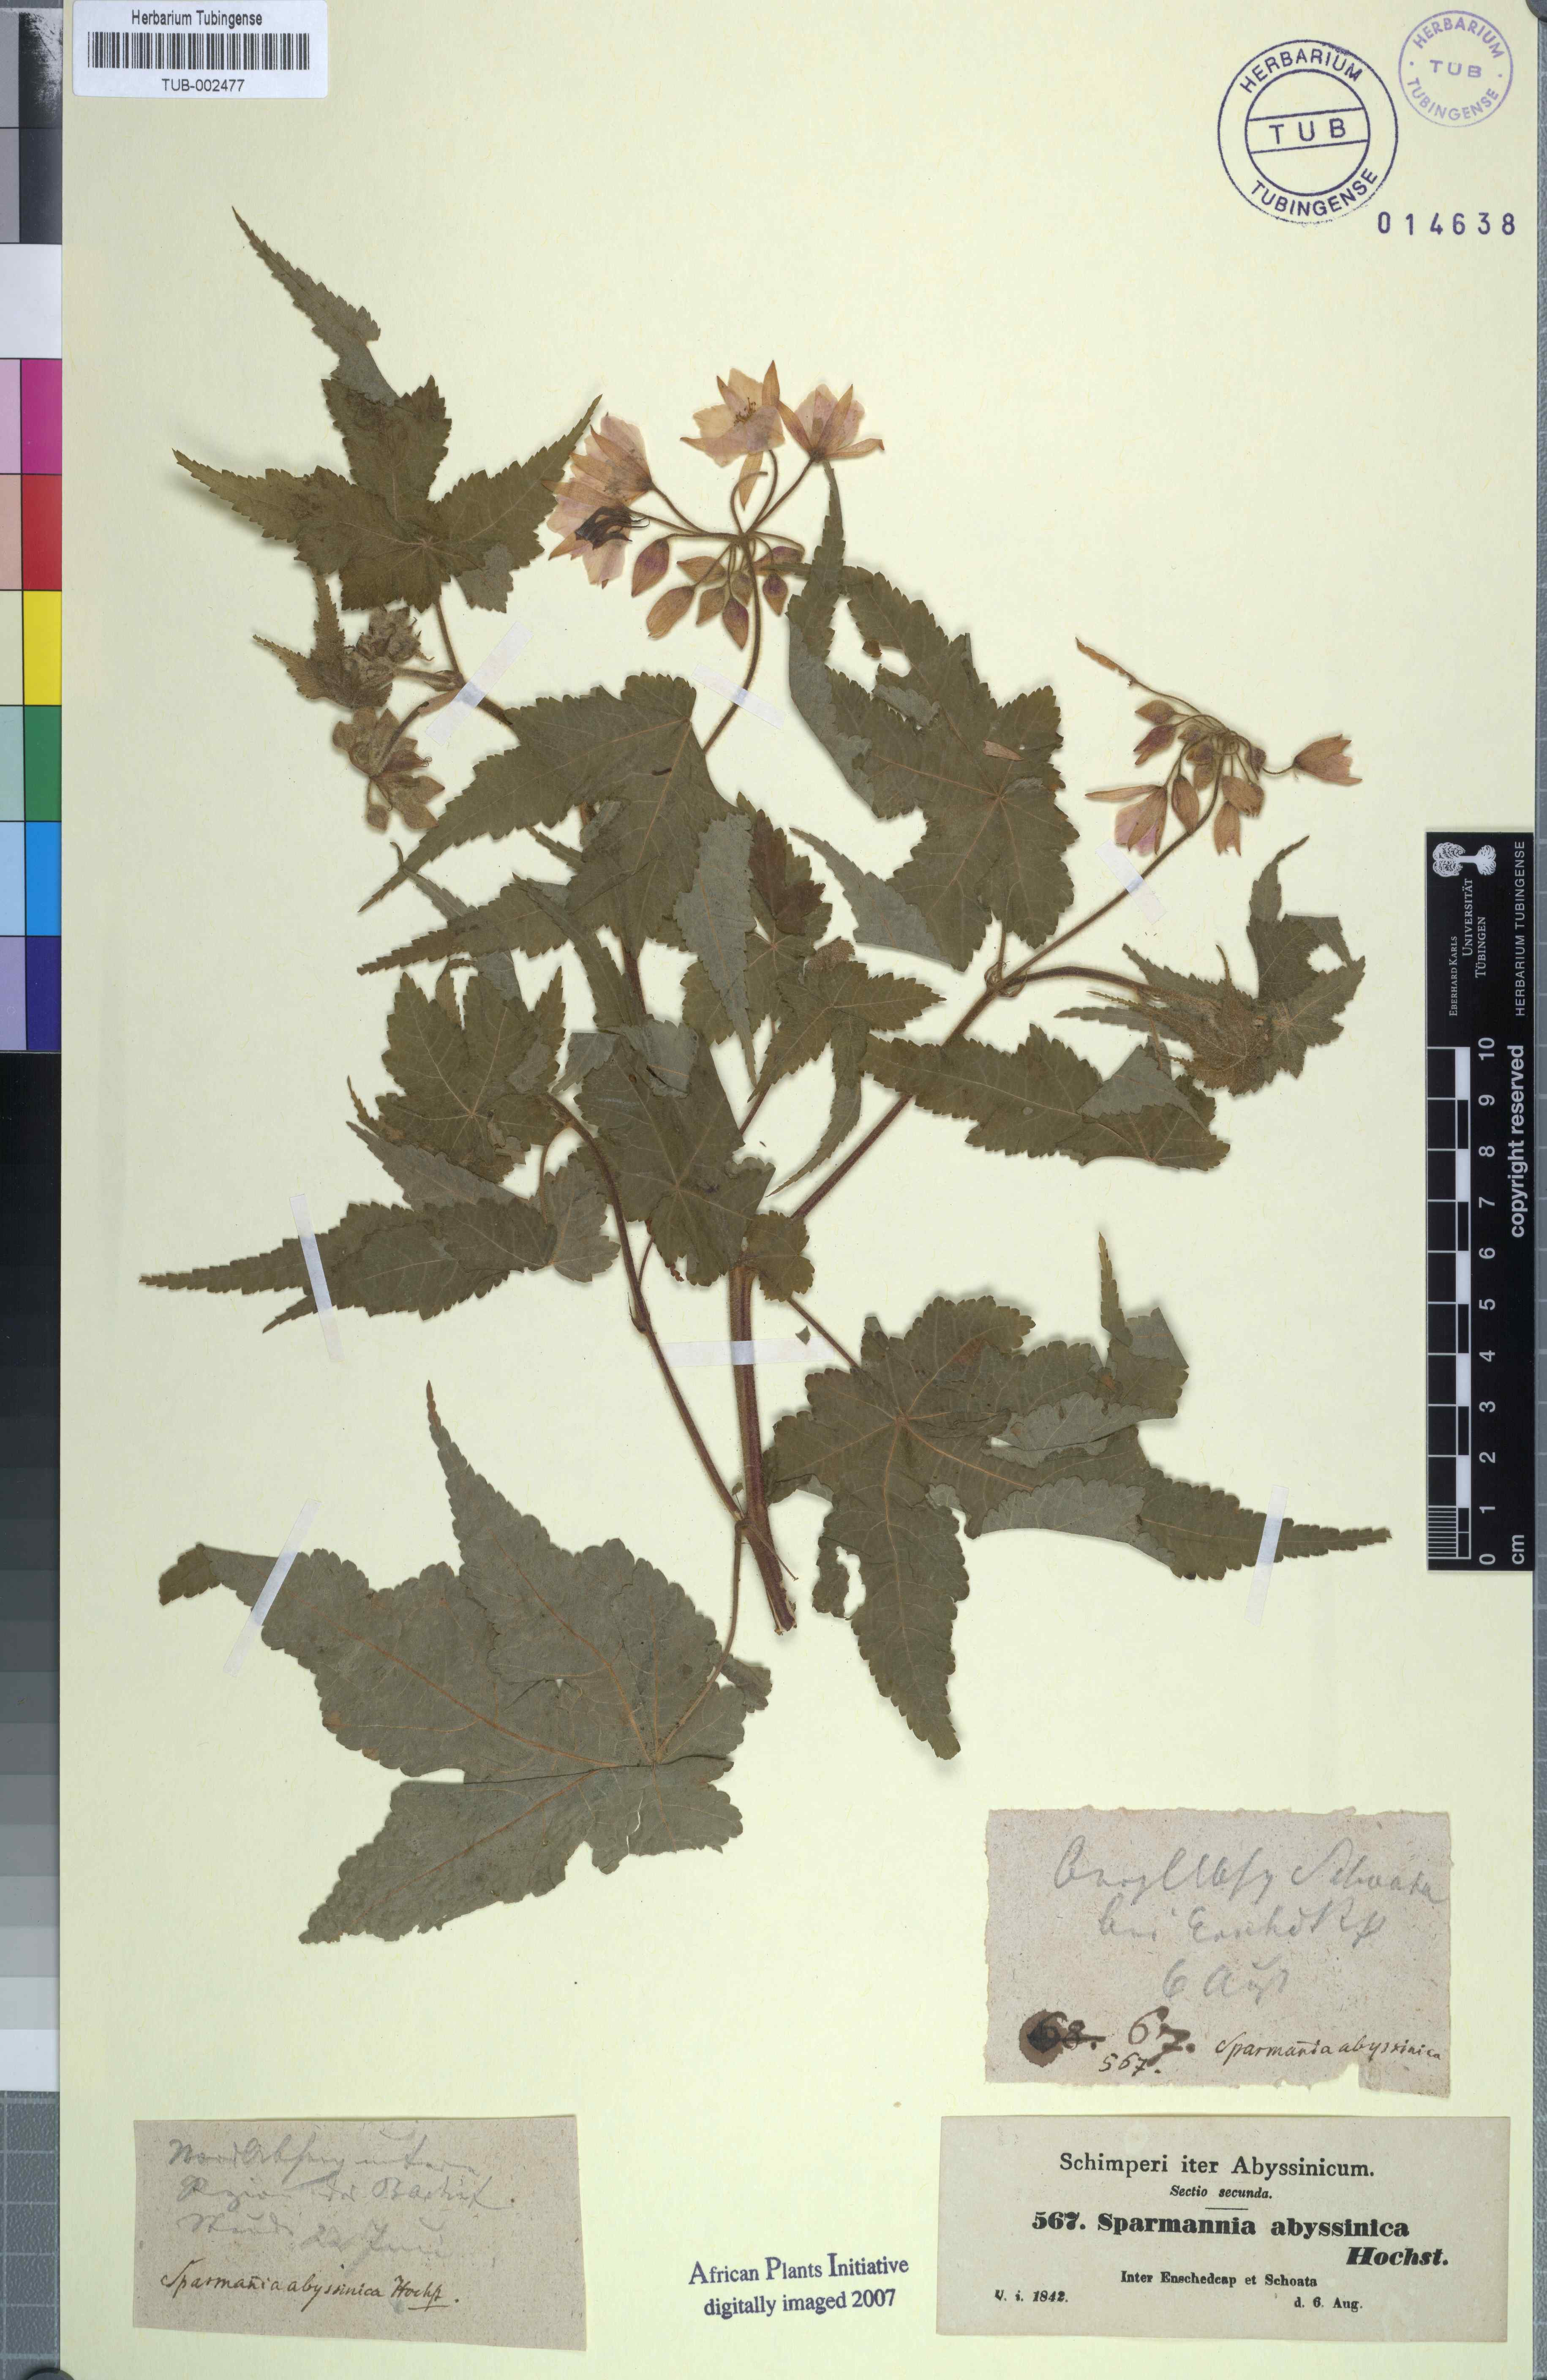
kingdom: Plantae
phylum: Tracheophyta
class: Magnoliopsida
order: Malvales
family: Malvaceae
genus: Sparrmannia
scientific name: Sparrmannia ricinocarpa
